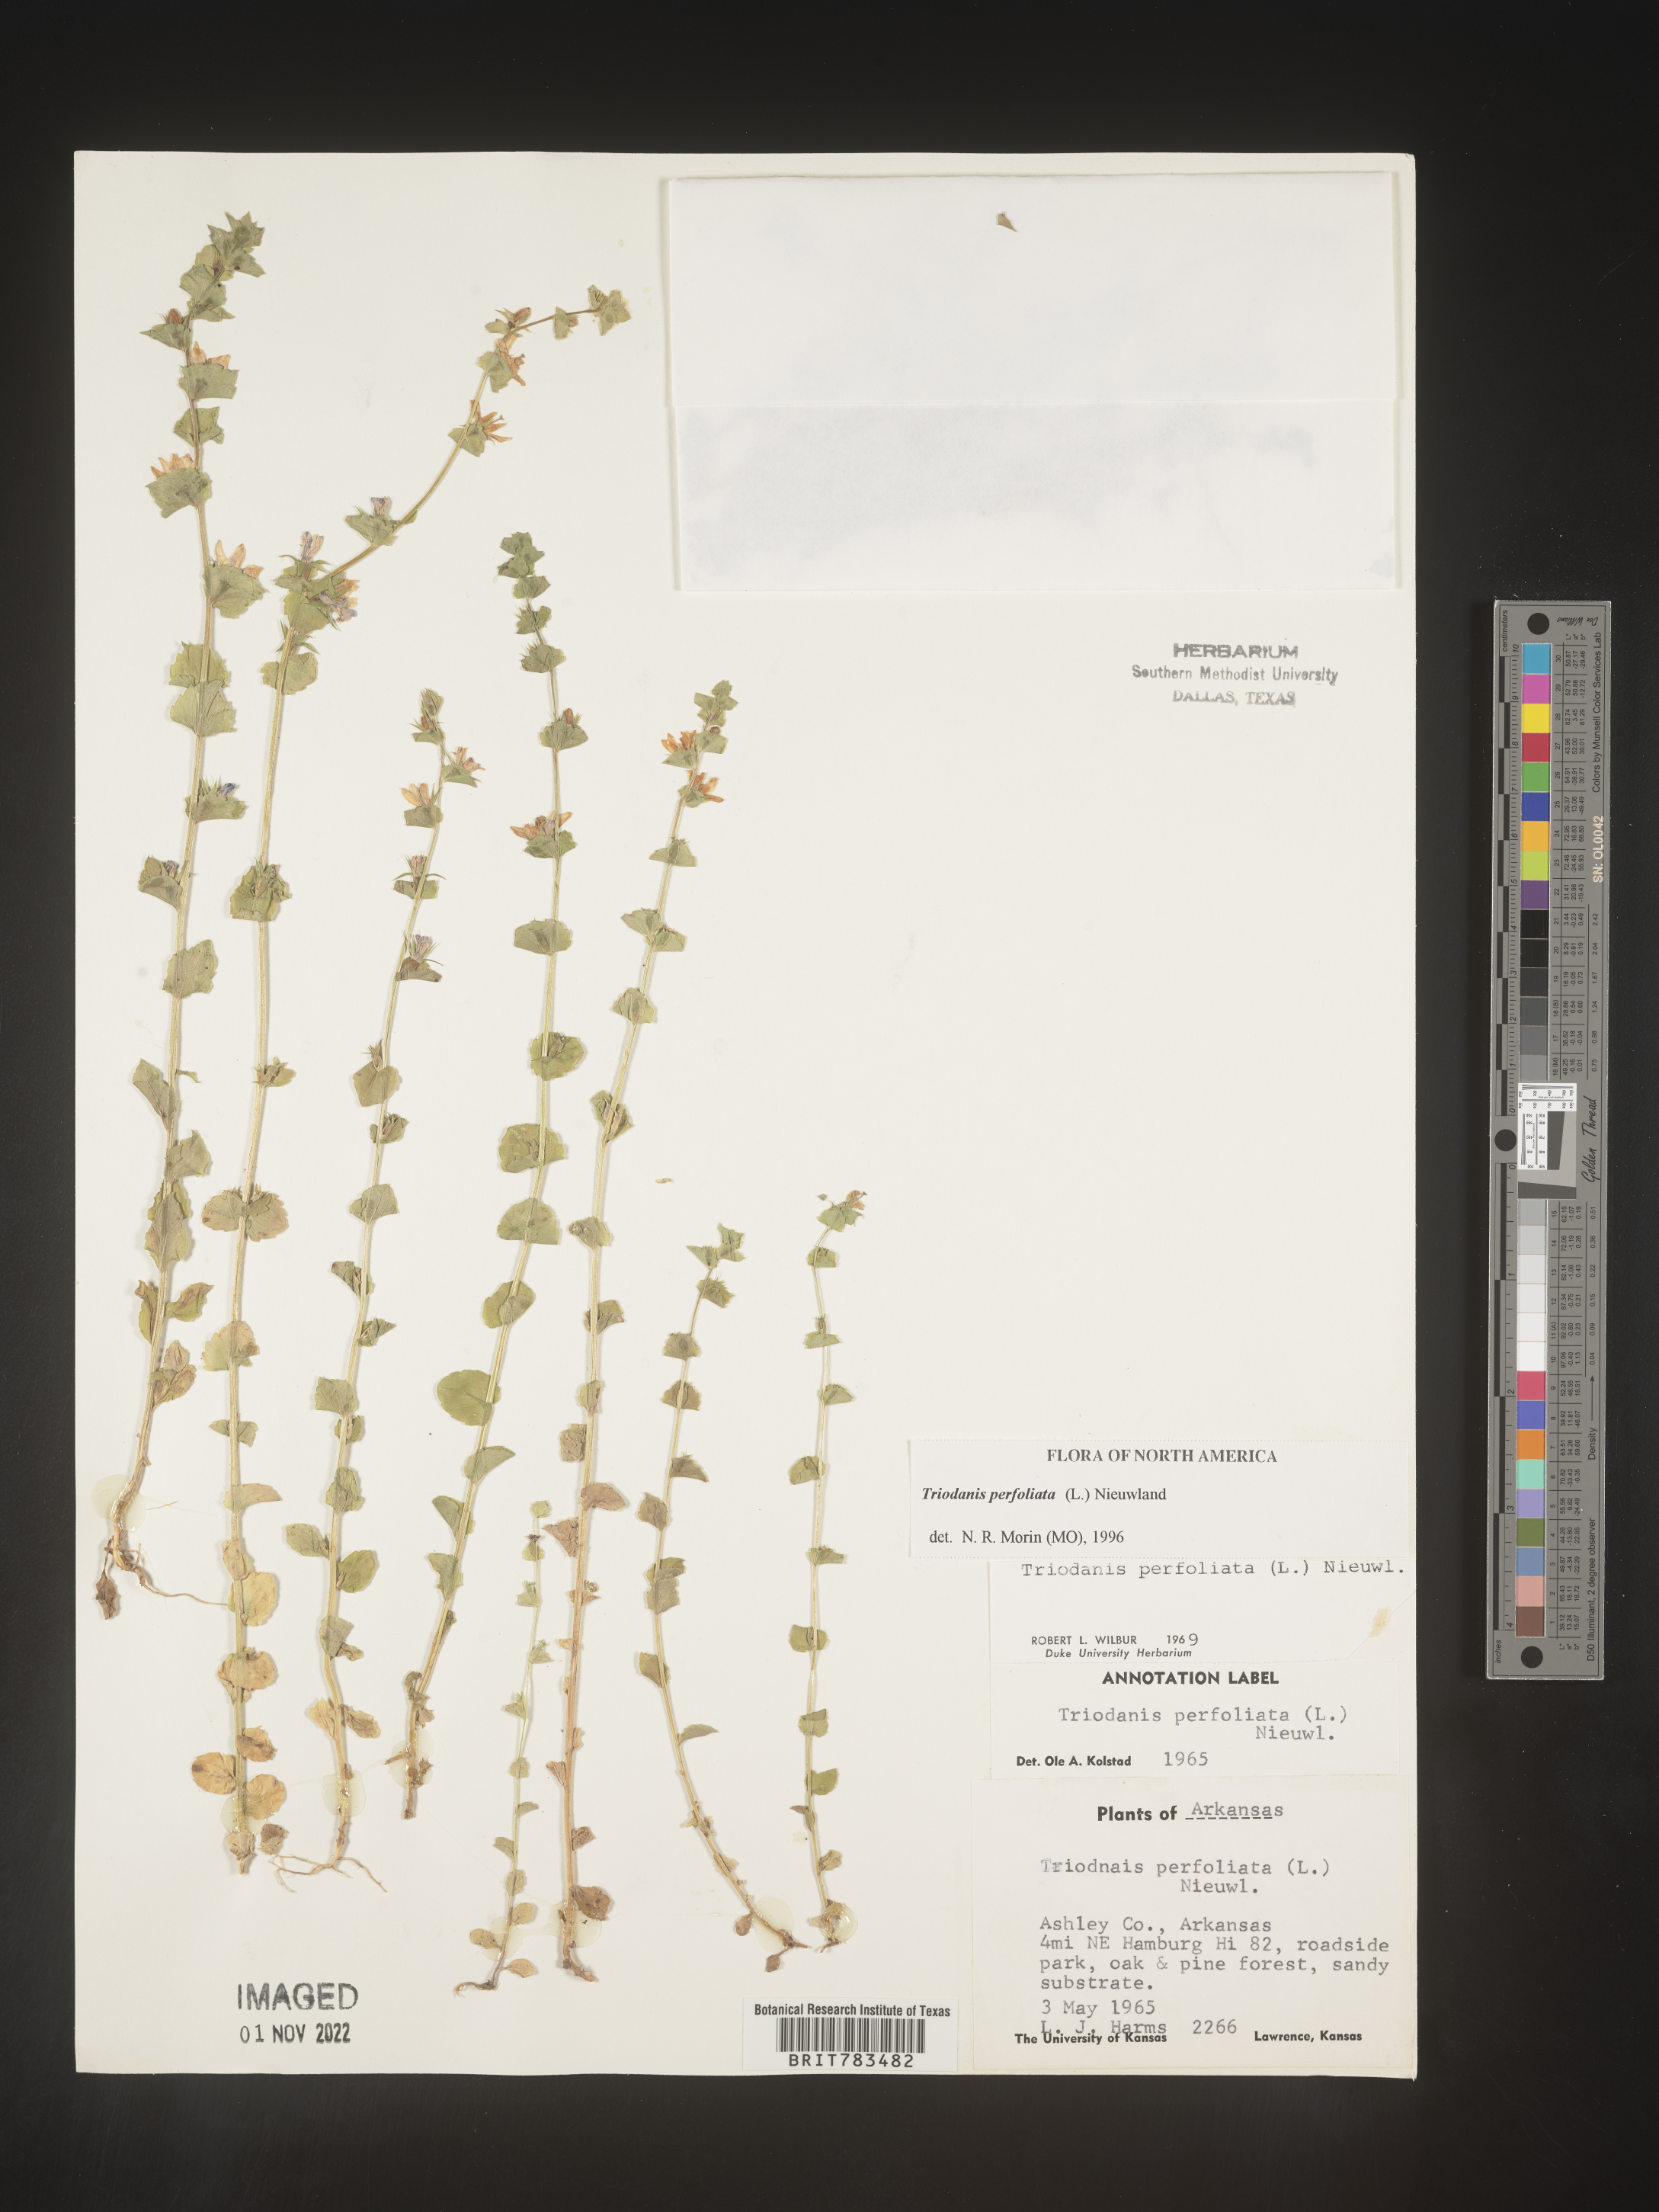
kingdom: Plantae
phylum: Tracheophyta
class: Magnoliopsida
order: Asterales
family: Campanulaceae
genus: Triodanis
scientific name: Triodanis perfoliata
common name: Clasping venus' looking-glass
